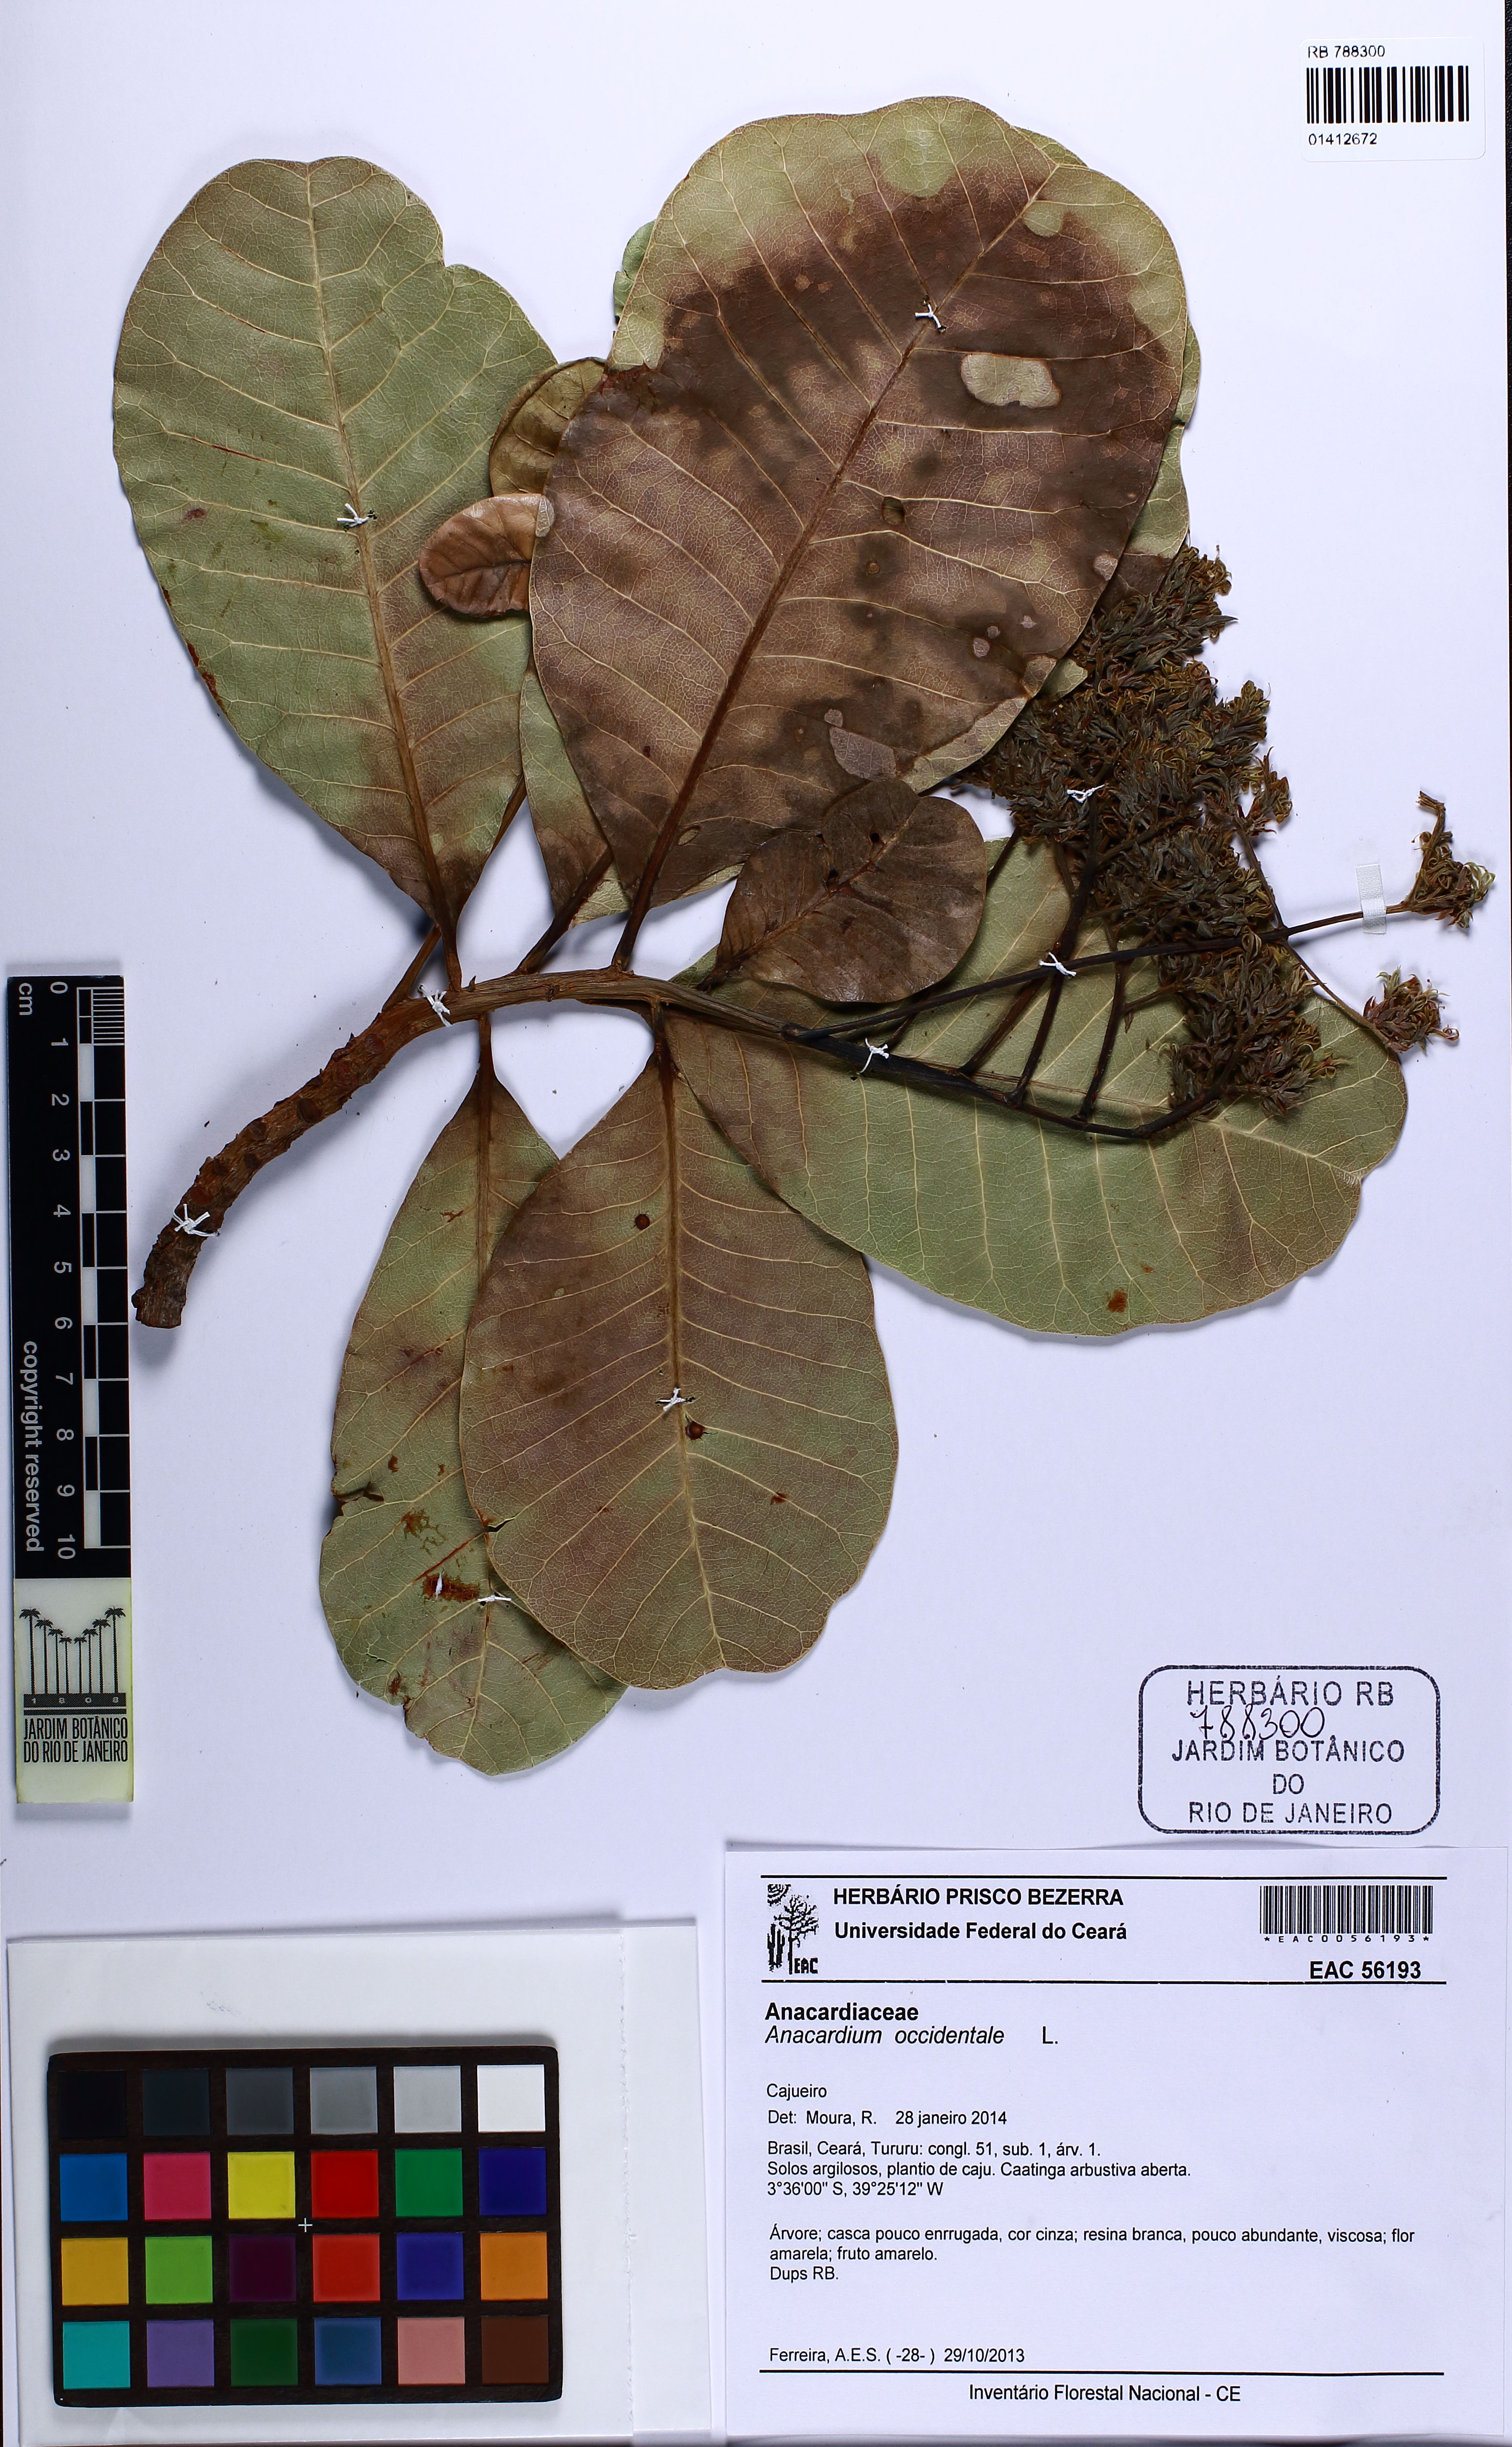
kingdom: Plantae
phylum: Tracheophyta
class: Magnoliopsida
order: Sapindales
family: Anacardiaceae
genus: Anacardium
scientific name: Anacardium occidentale
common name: Cashew
